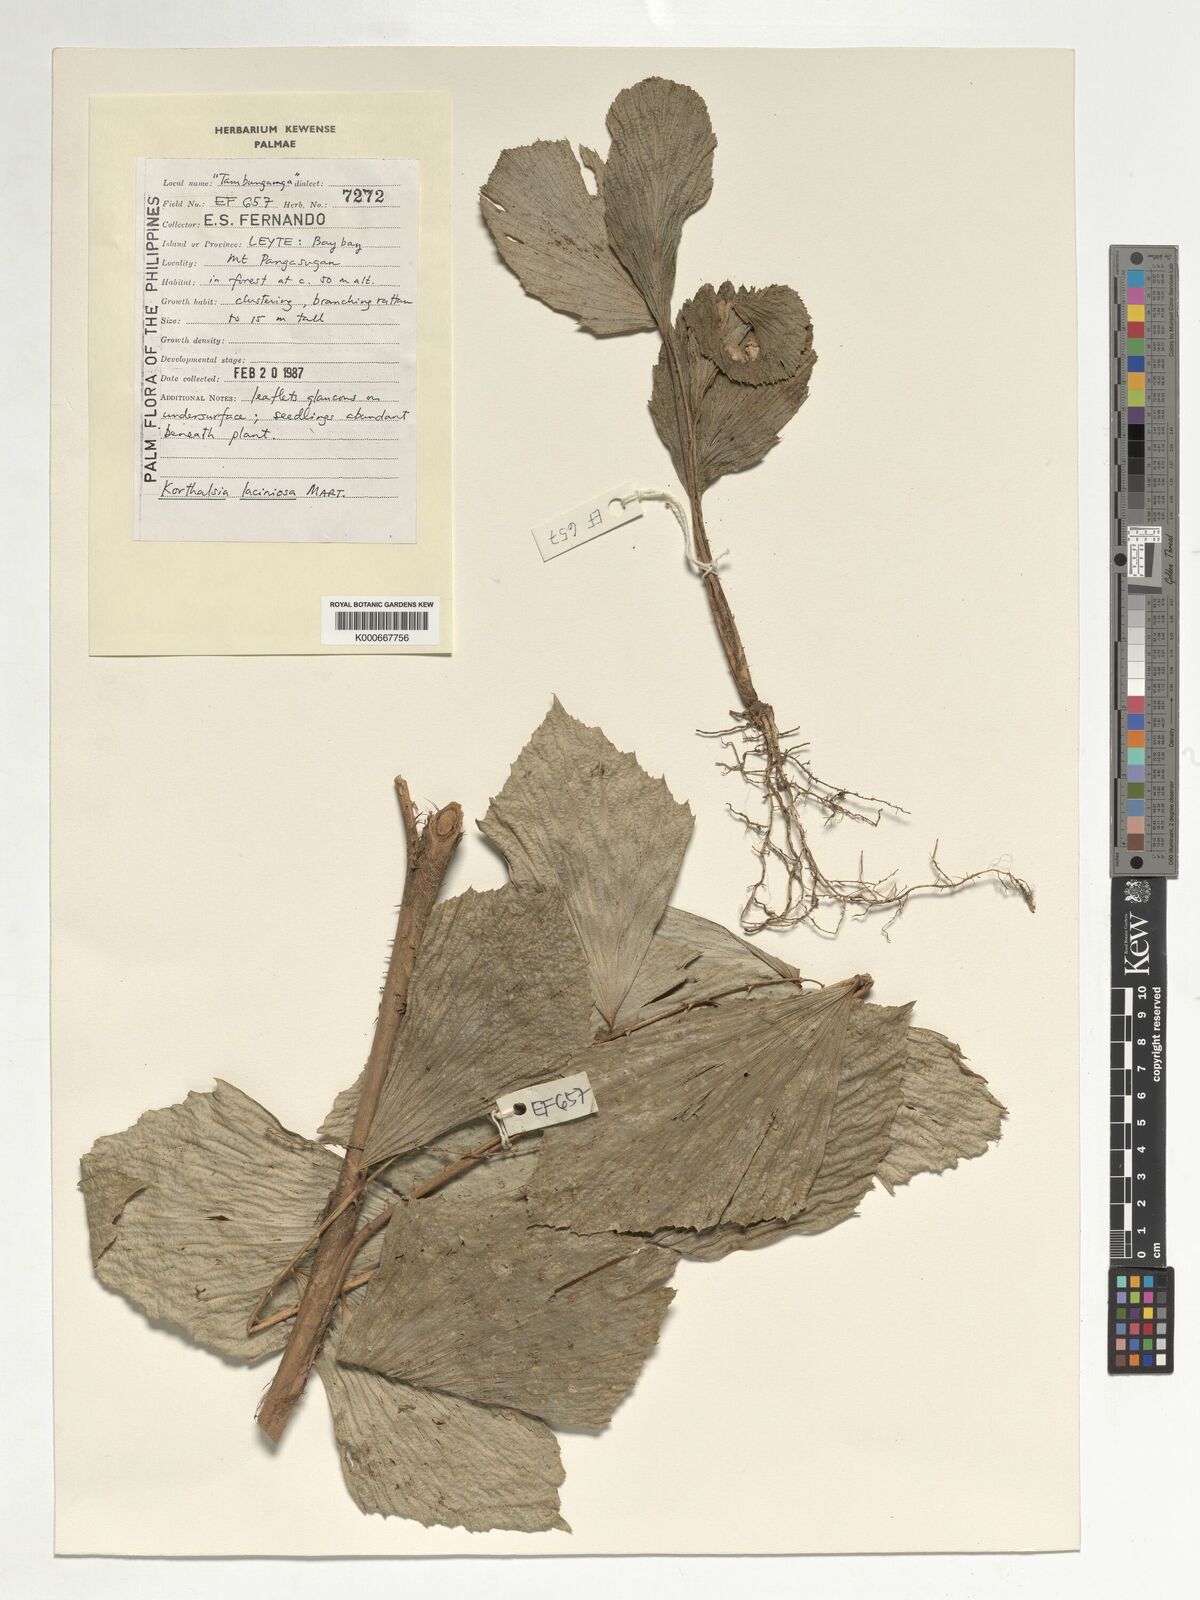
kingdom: Plantae
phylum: Tracheophyta
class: Liliopsida
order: Arecales
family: Arecaceae
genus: Korthalsia
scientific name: Korthalsia laciniosa
